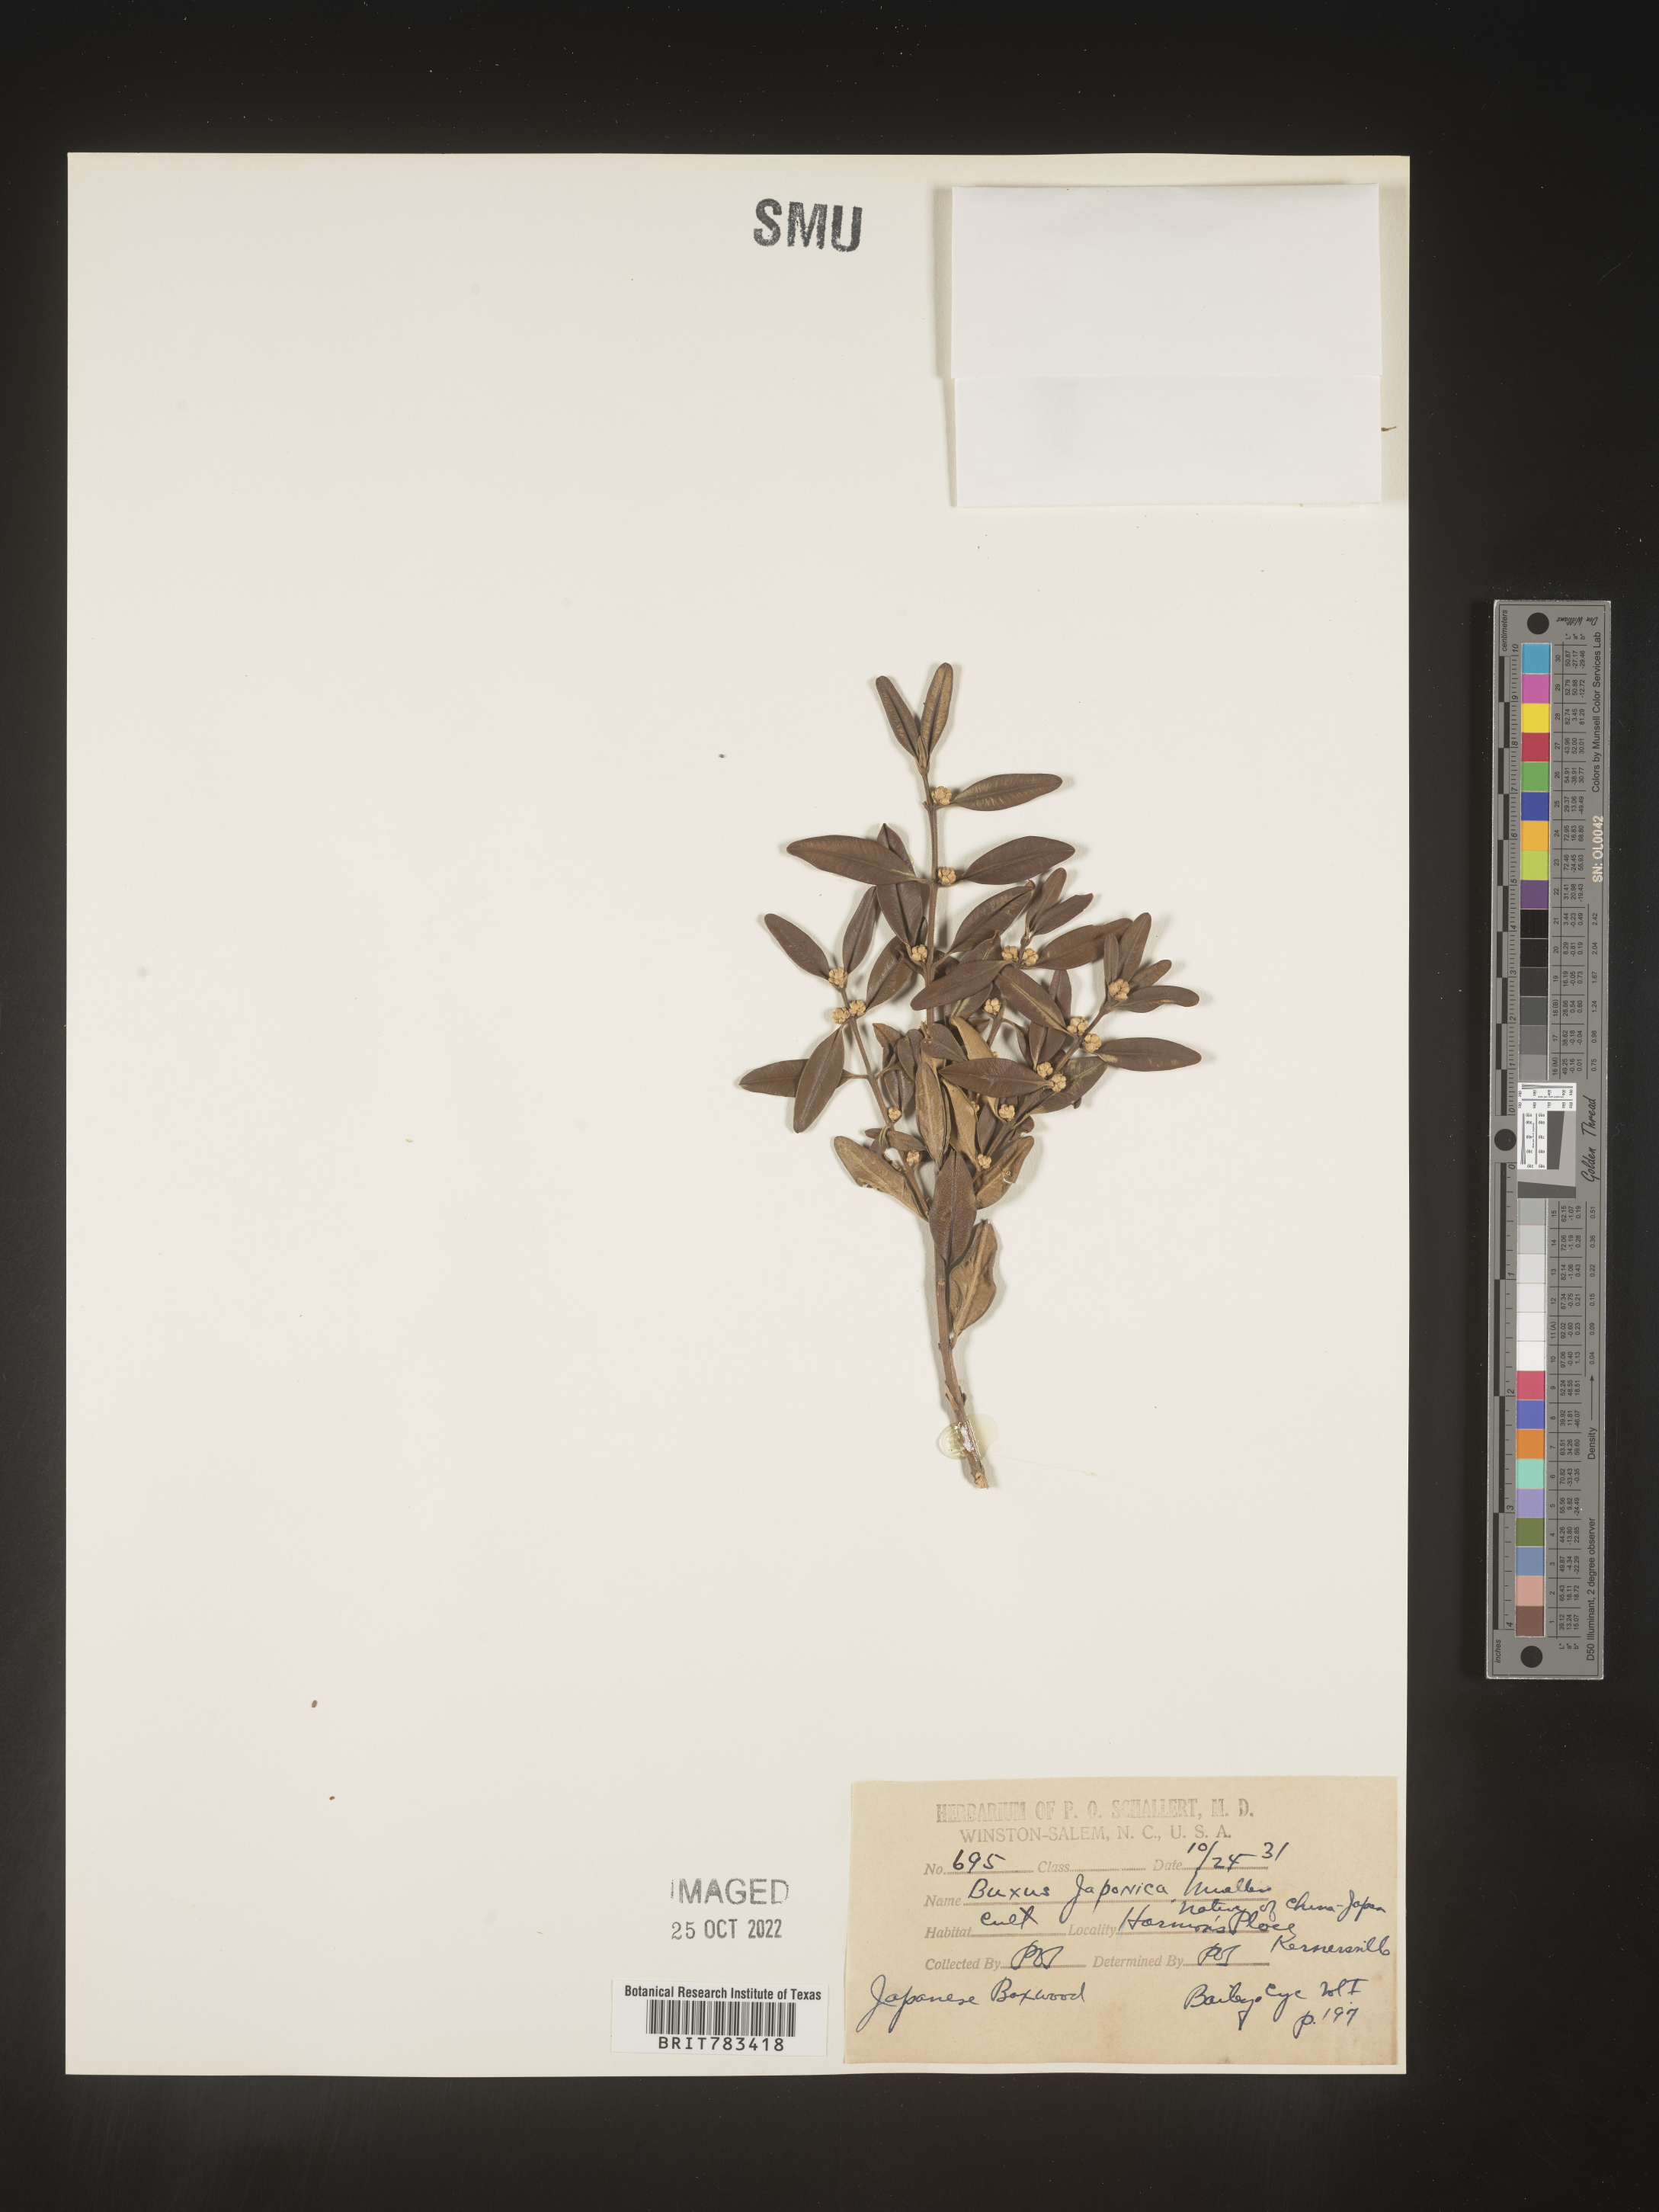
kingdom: Plantae
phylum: Tracheophyta
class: Magnoliopsida
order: Buxales
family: Buxaceae
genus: Buxus
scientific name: Buxus
